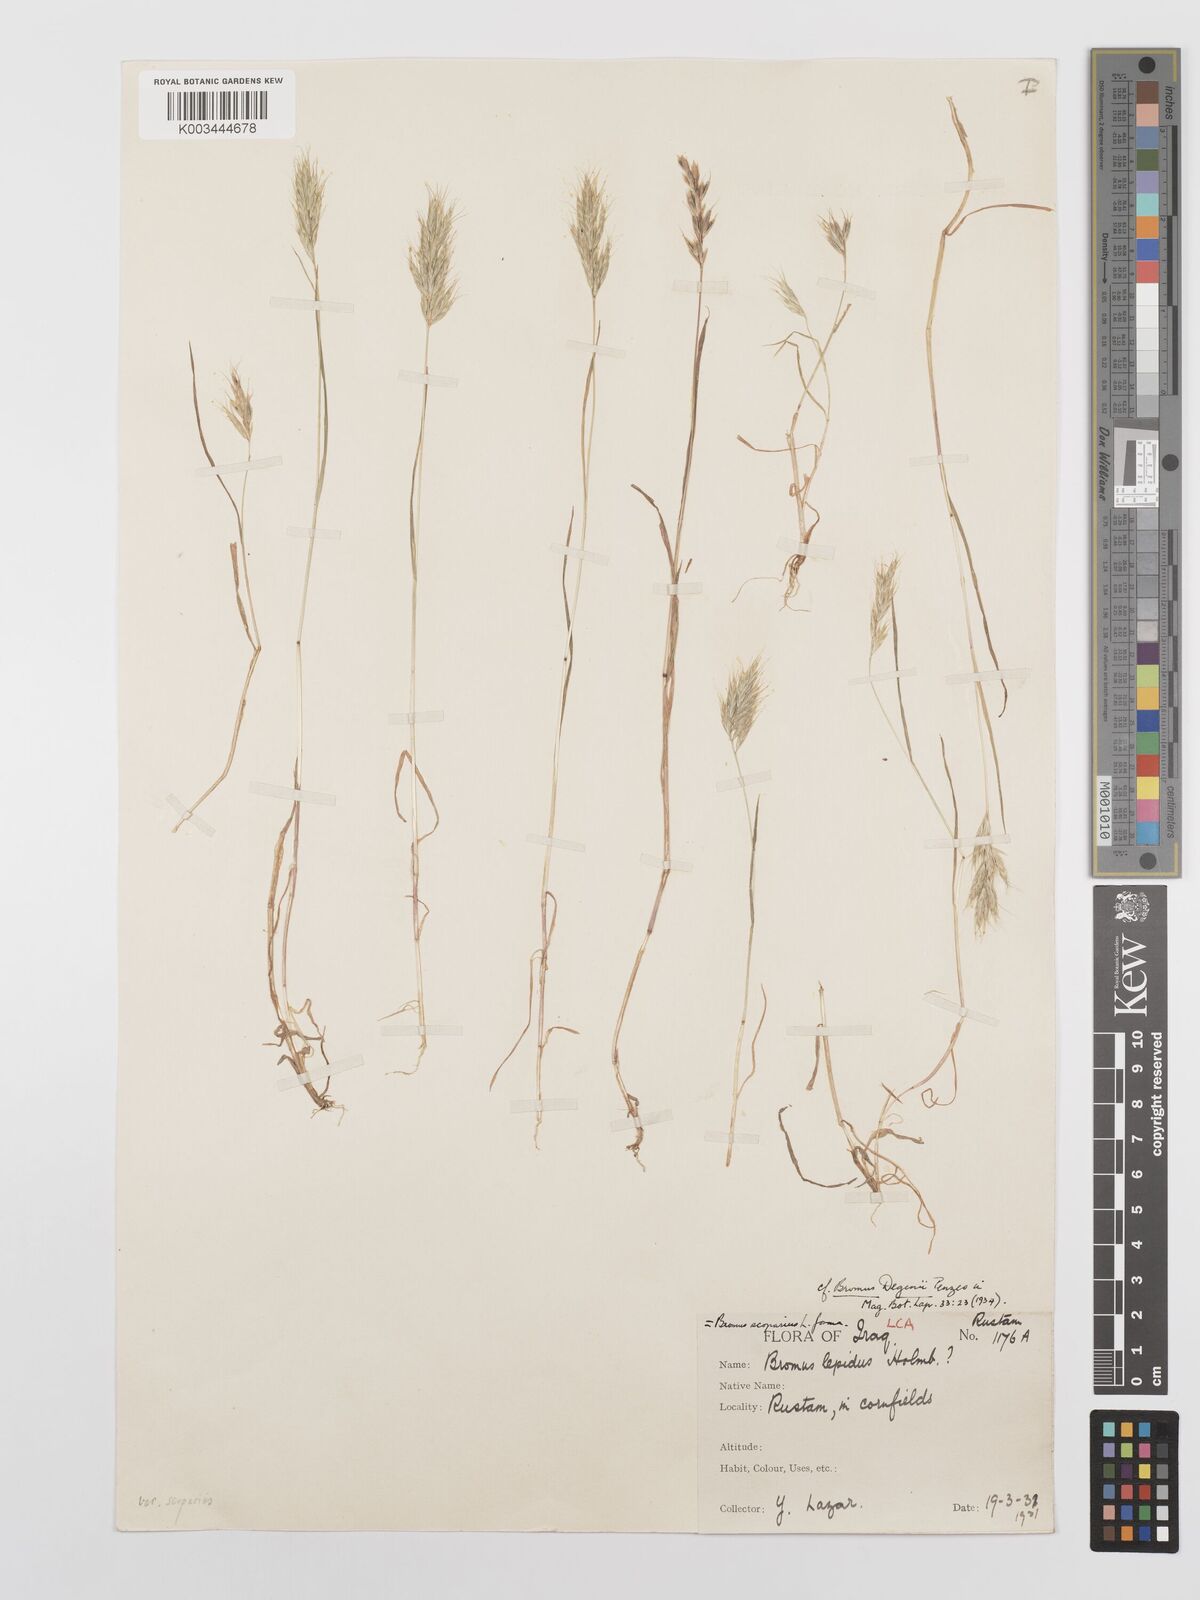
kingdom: Plantae
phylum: Tracheophyta
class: Liliopsida
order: Poales
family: Poaceae
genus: Bromus
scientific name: Bromus scoparius
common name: Broom brome
